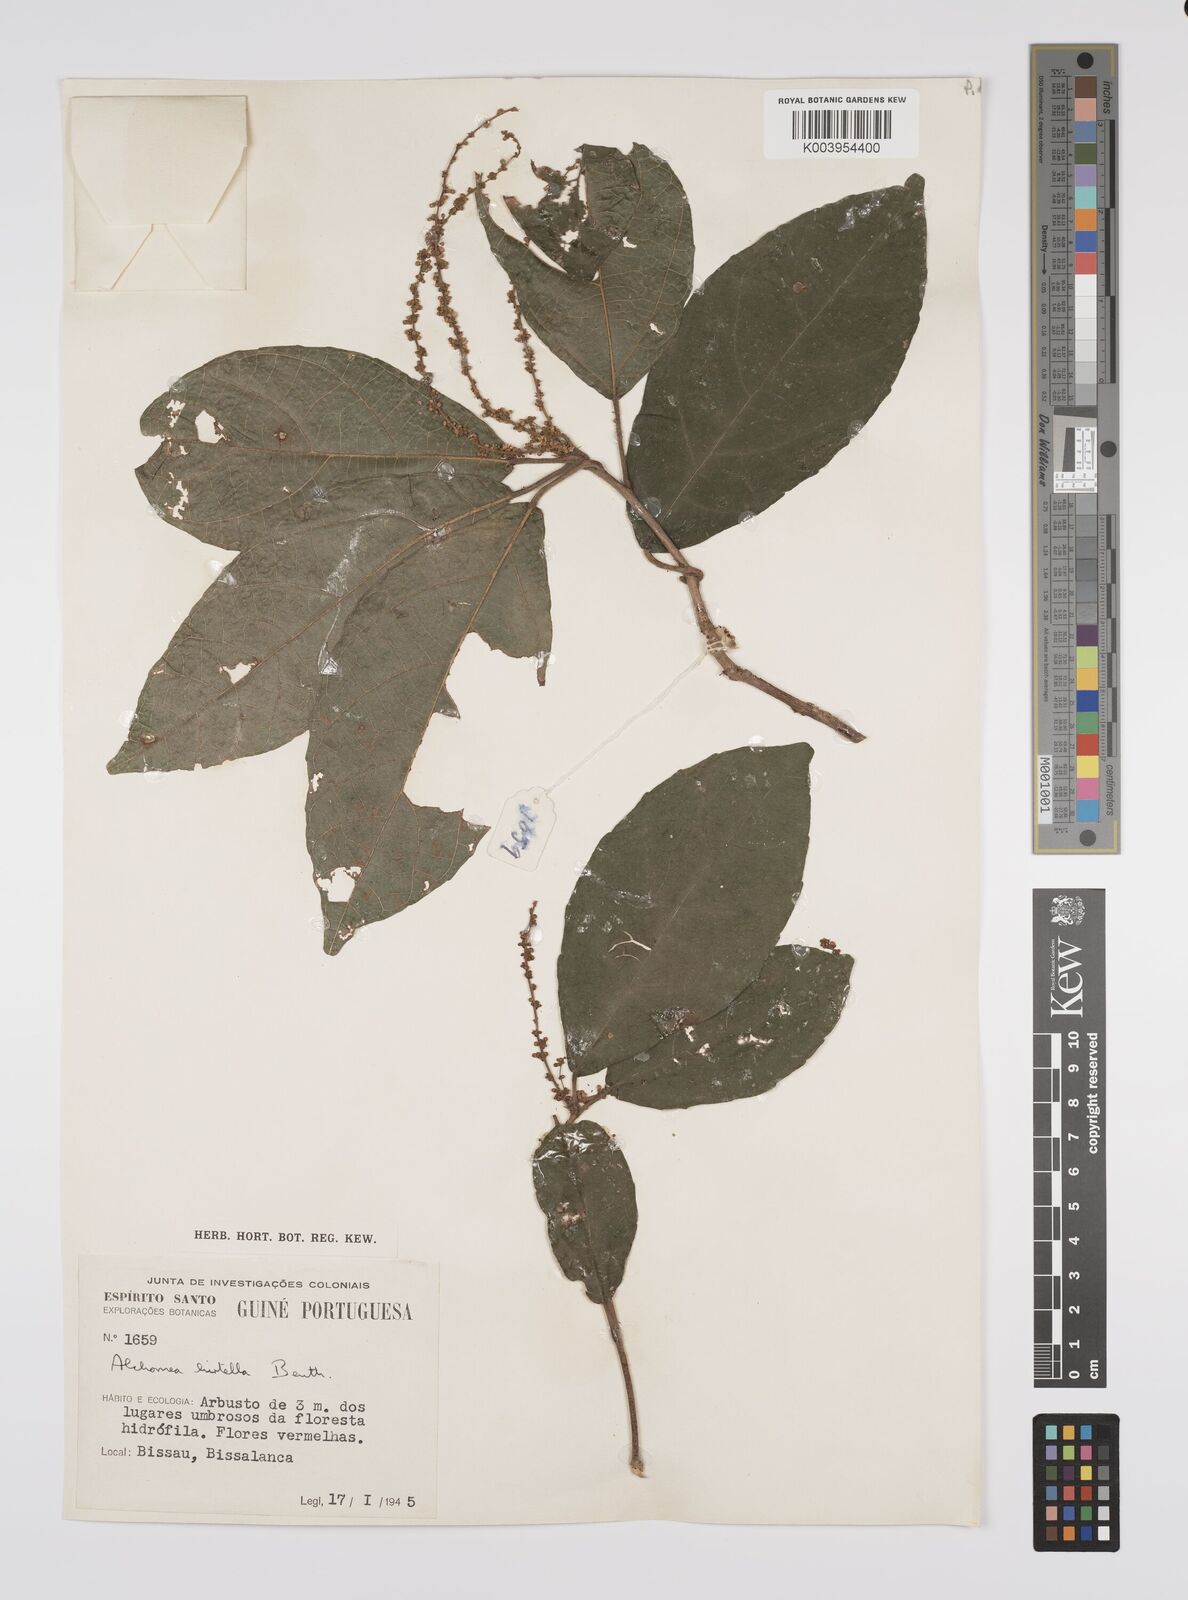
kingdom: Plantae
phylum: Tracheophyta
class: Magnoliopsida
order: Malpighiales
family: Euphorbiaceae
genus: Alchornea
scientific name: Alchornea hirtella
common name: Forest bead-string
